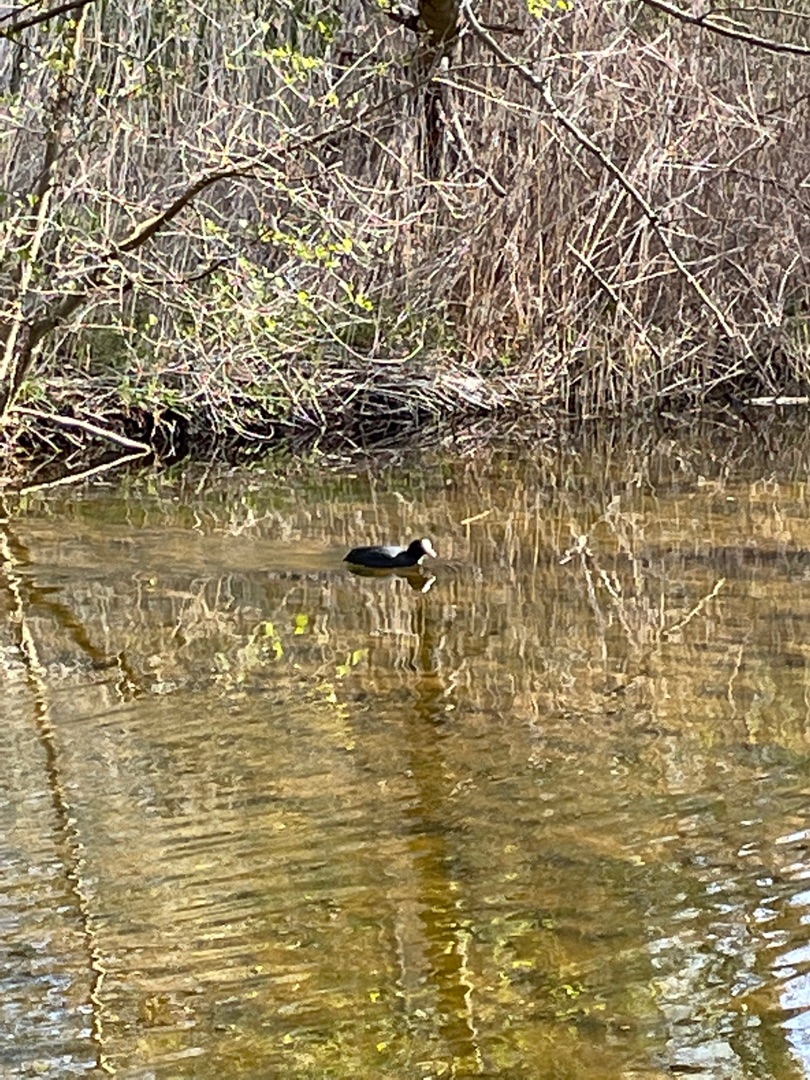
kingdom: Animalia
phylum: Chordata
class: Aves
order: Gruiformes
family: Rallidae
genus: Fulica
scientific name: Fulica atra
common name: Blishøne
